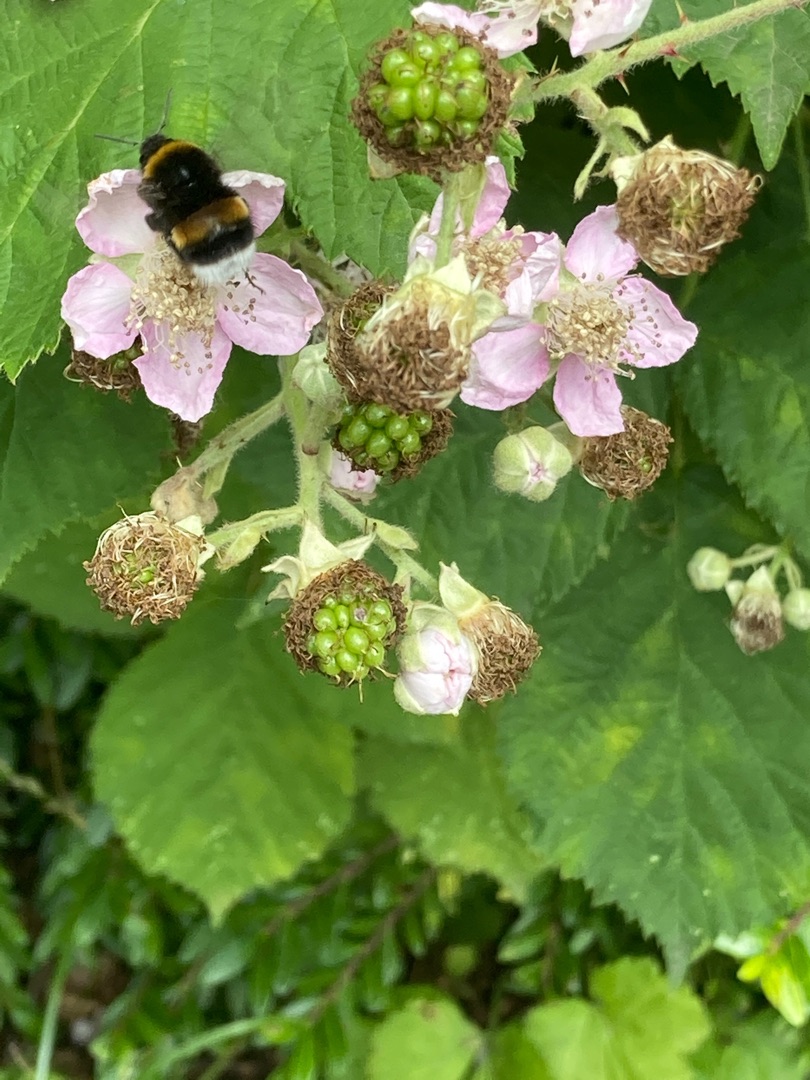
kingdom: Plantae
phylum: Tracheophyta
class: Magnoliopsida
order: Rosales
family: Rosaceae
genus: Rubus
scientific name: Rubus
